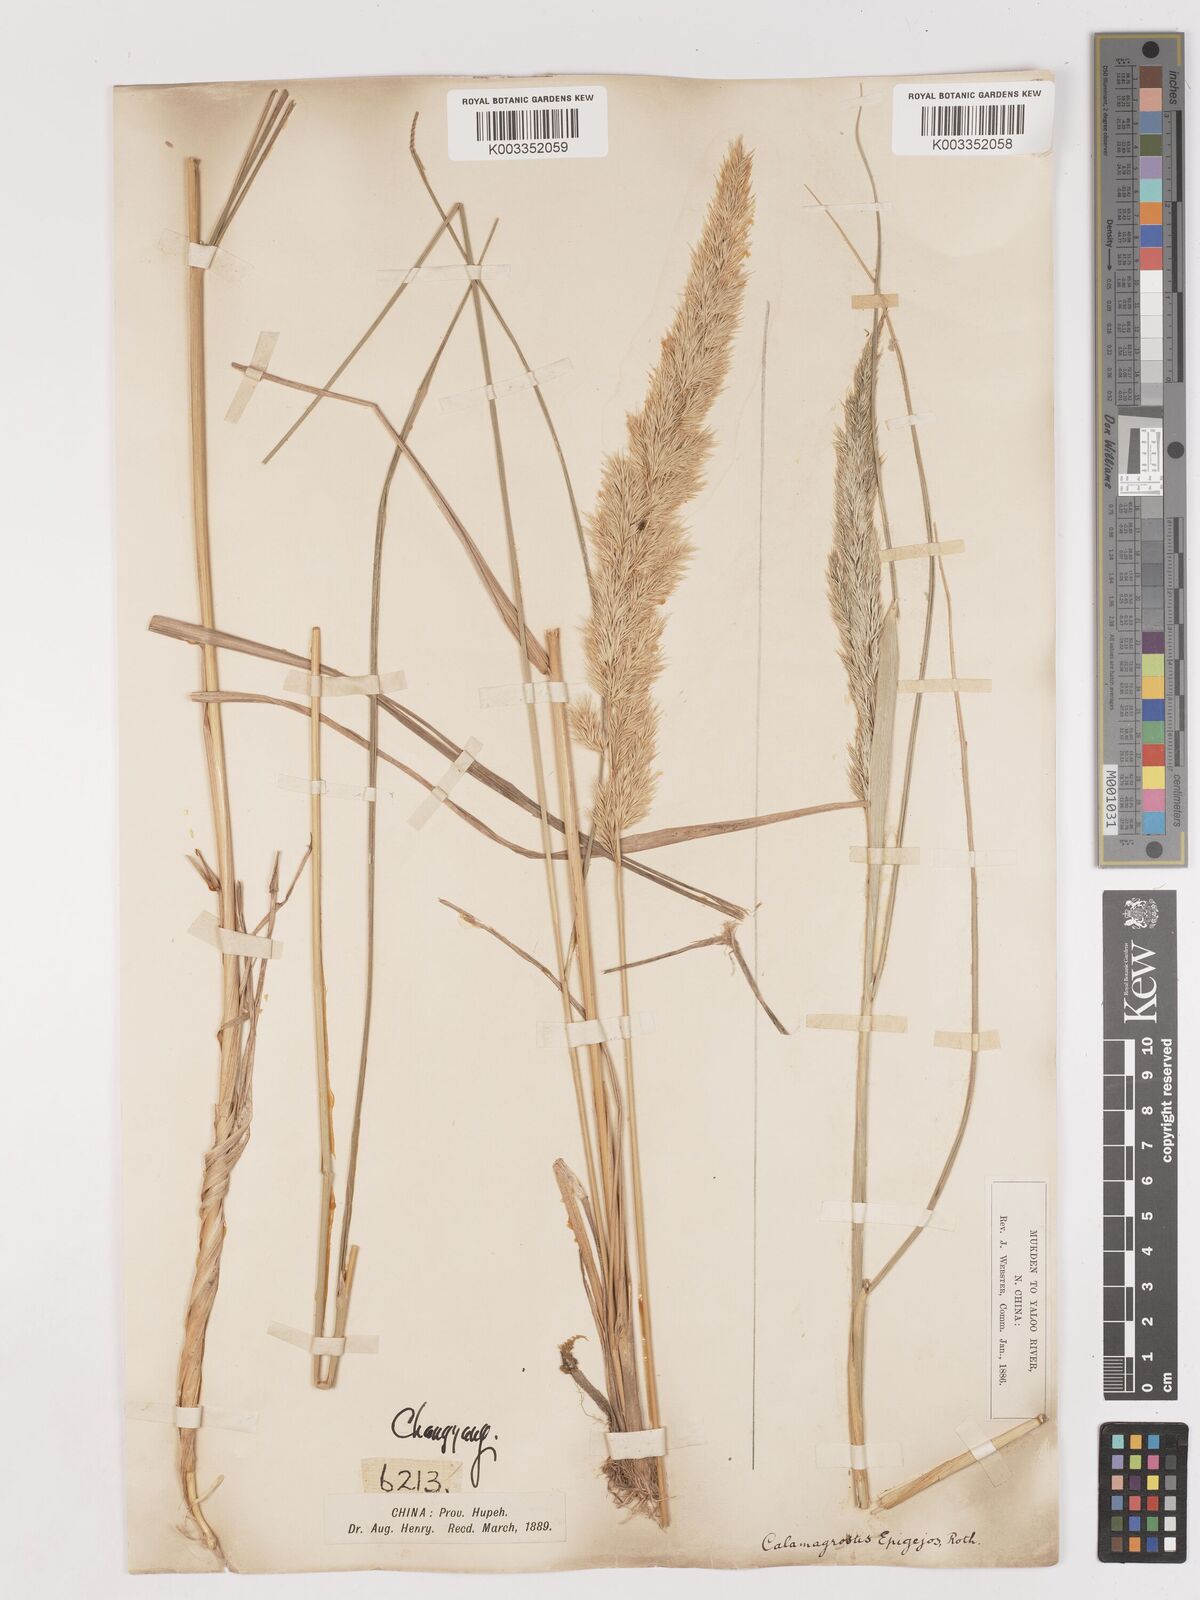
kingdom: Plantae
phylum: Tracheophyta
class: Liliopsida
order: Poales
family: Poaceae
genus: Calamagrostis
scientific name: Calamagrostis epigejos
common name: Wood small-reed
